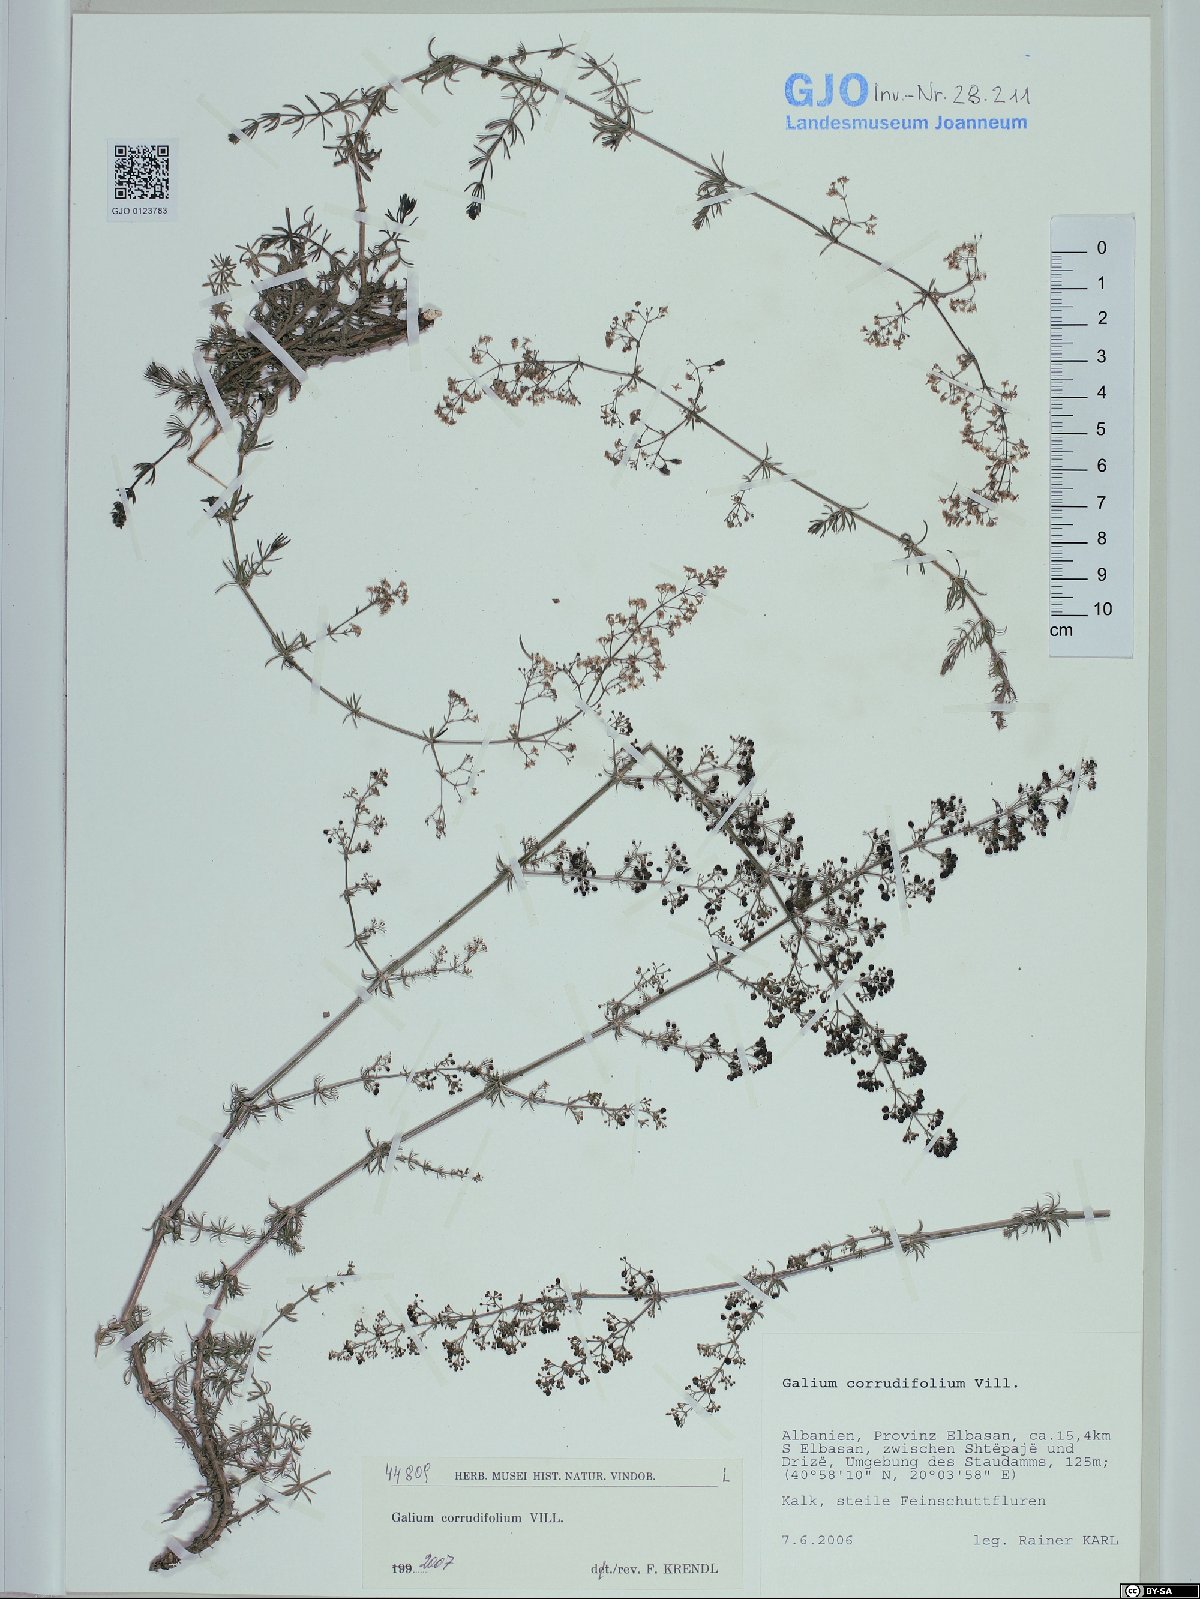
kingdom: Plantae
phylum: Tracheophyta
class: Magnoliopsida
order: Gentianales
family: Rubiaceae
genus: Galium
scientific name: Galium lucidum
